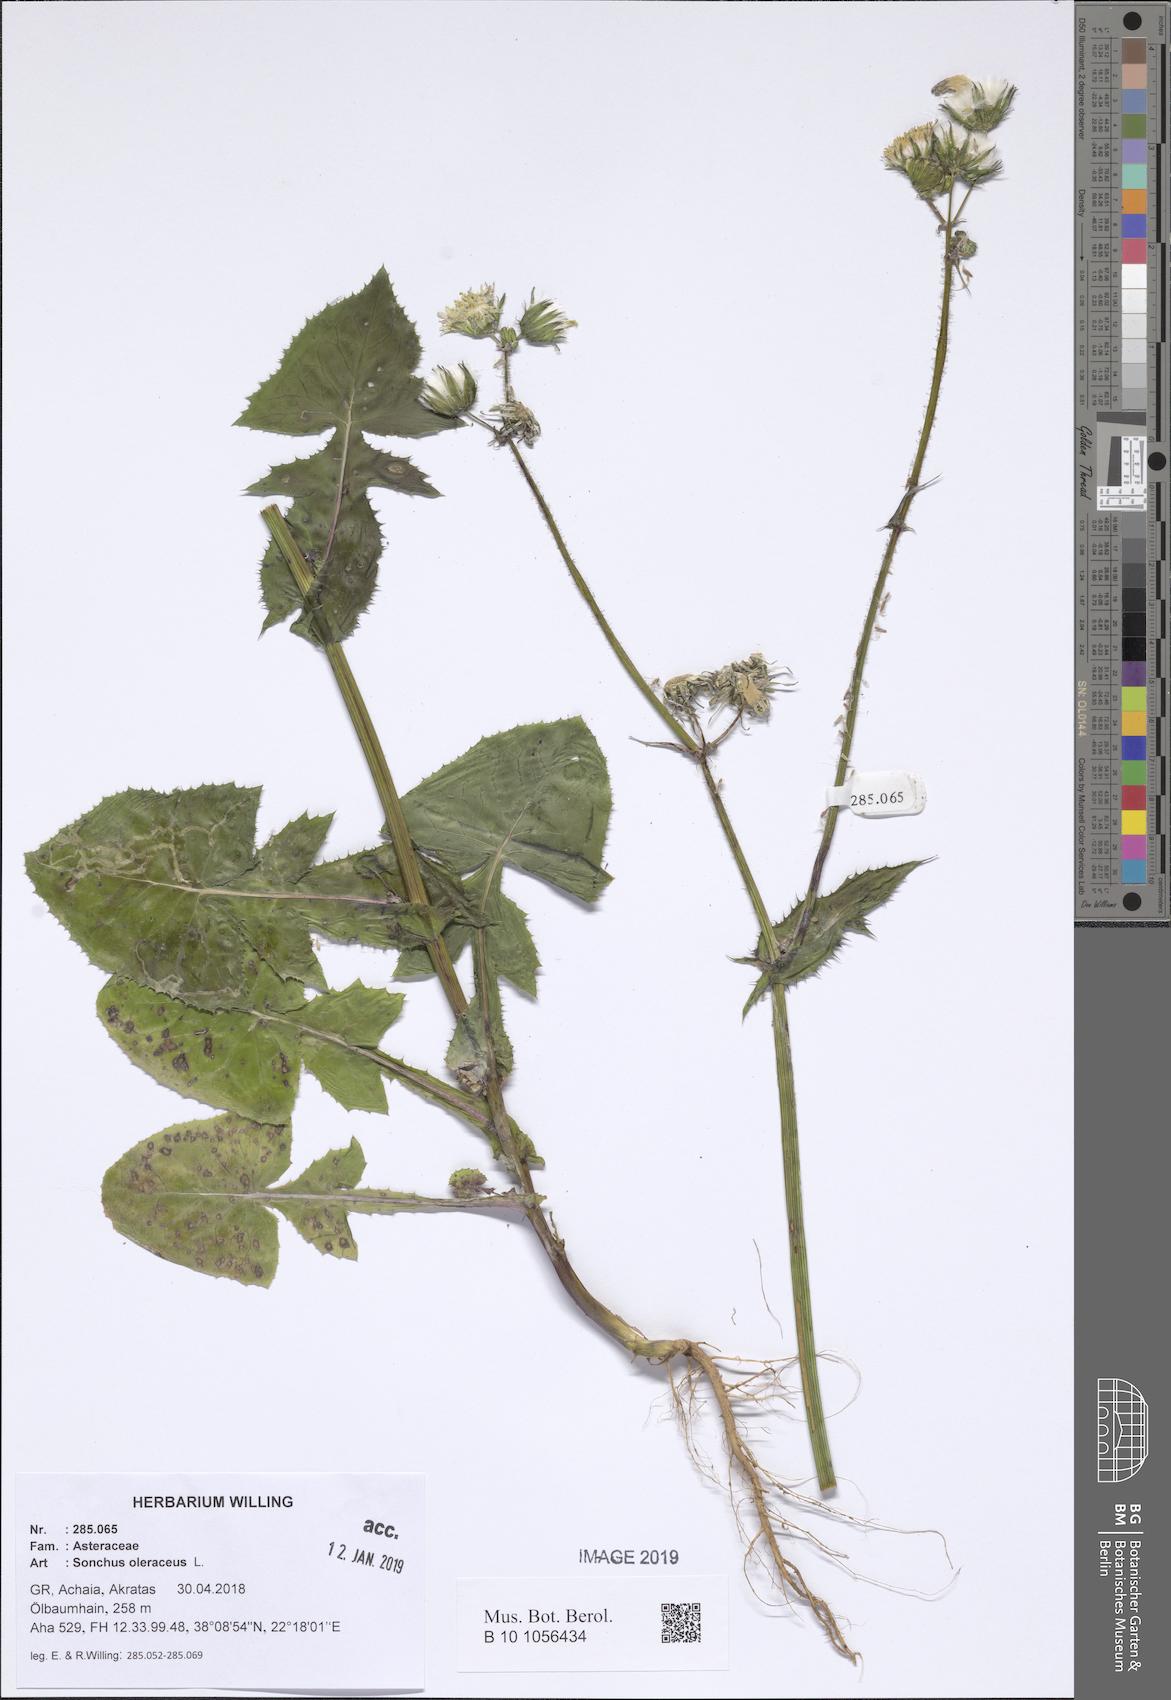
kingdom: Plantae
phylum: Tracheophyta
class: Magnoliopsida
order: Asterales
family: Asteraceae
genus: Sonchus
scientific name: Sonchus oleraceus
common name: Common sowthistle
